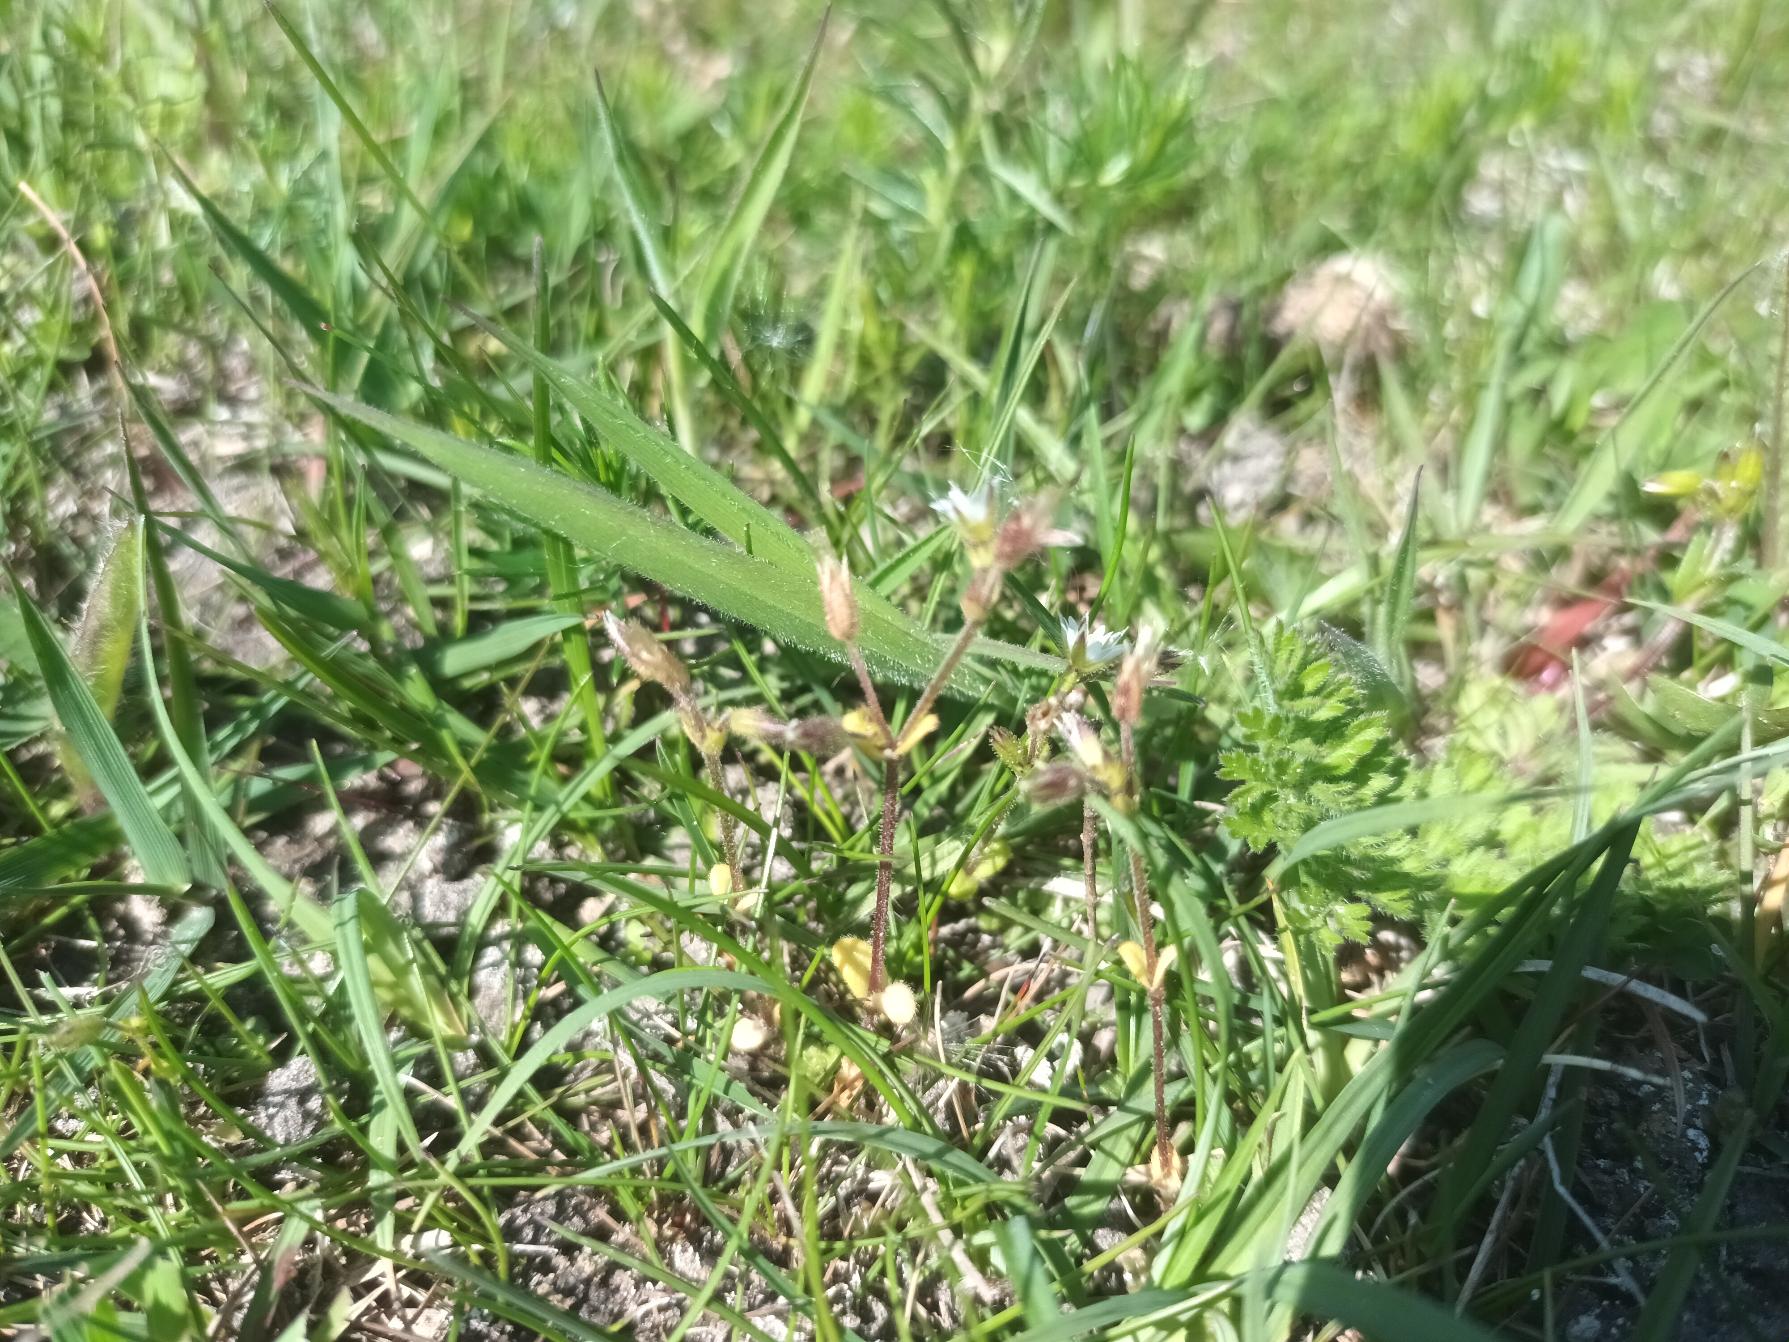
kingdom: Plantae
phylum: Tracheophyta
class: Magnoliopsida
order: Caryophyllales
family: Caryophyllaceae
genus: Cerastium
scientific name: Cerastium subtetrandrum
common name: Øresunds-hønsetarm
